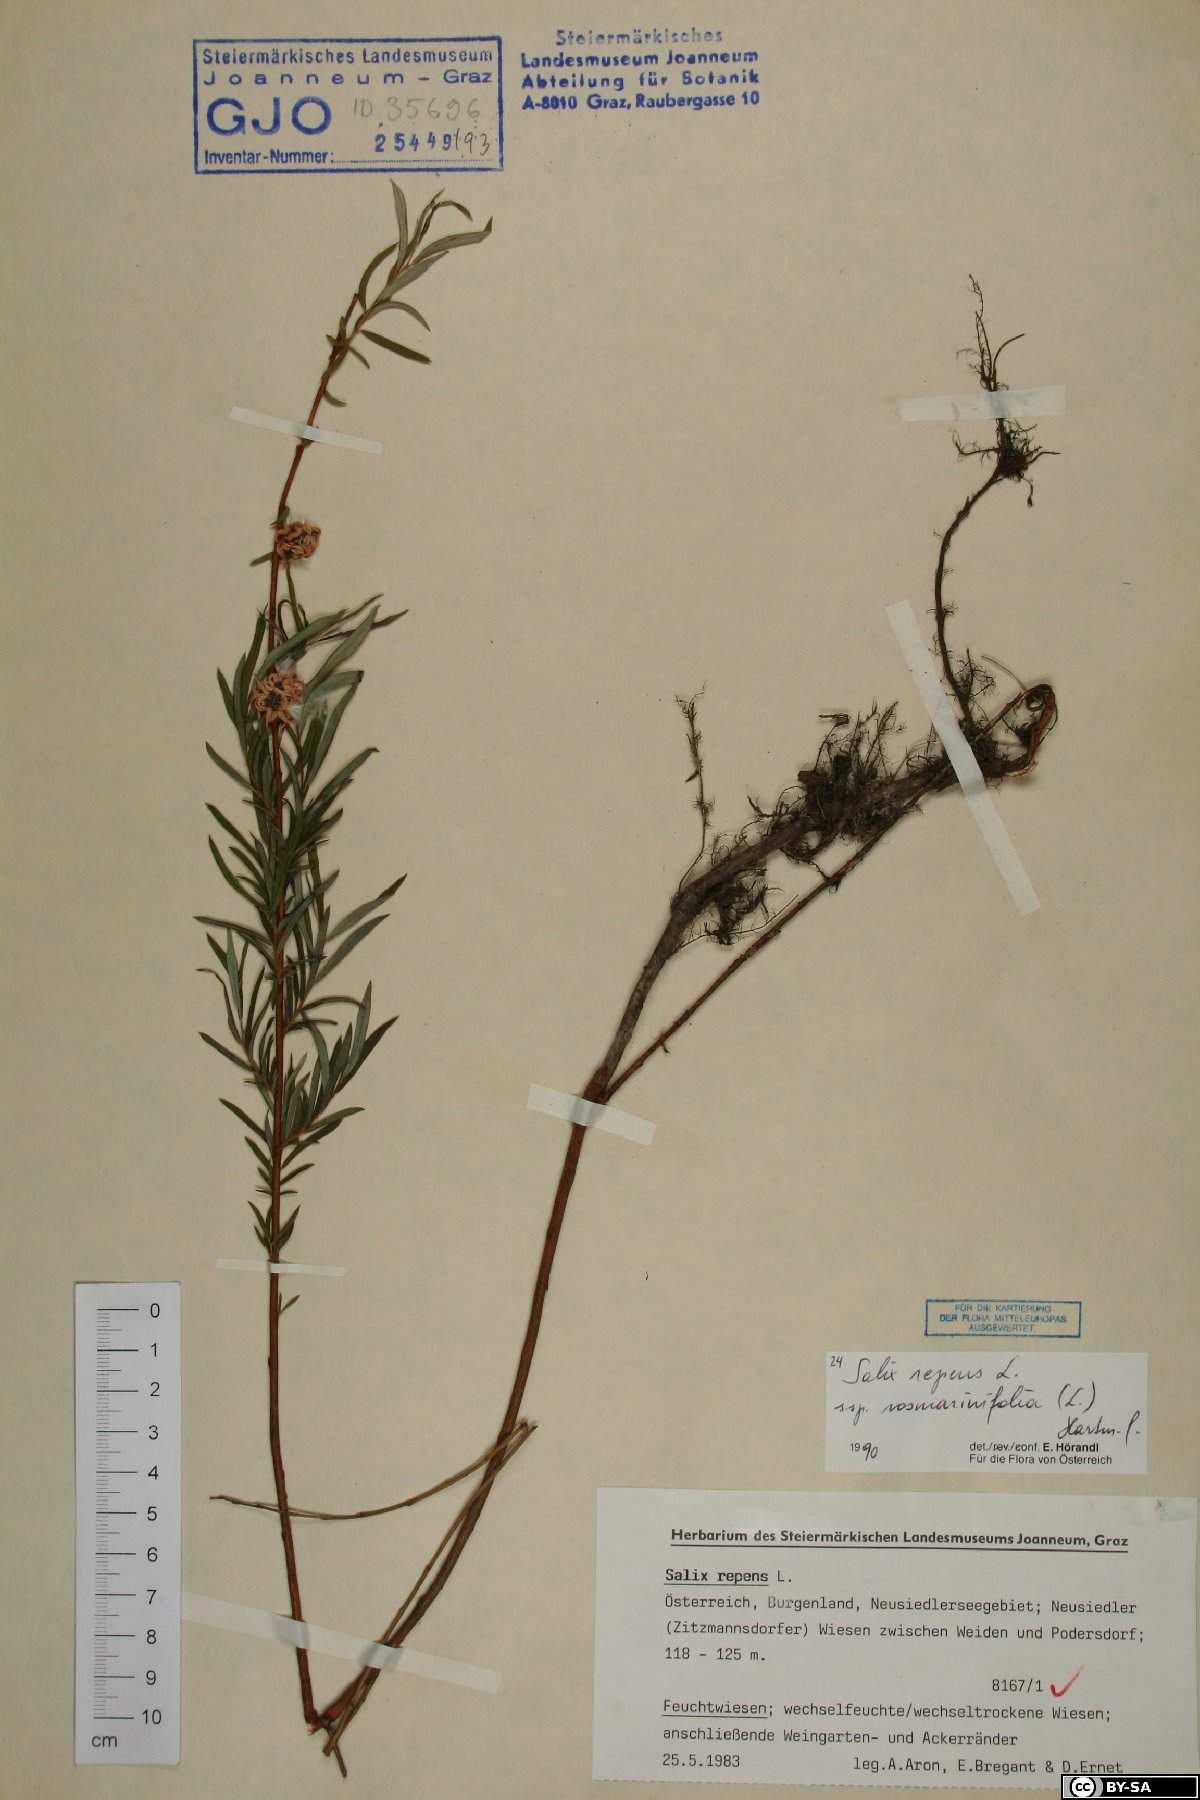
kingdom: Plantae
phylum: Tracheophyta
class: Magnoliopsida
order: Malpighiales
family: Salicaceae
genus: Salix
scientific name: Salix repens
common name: Creeping willow
